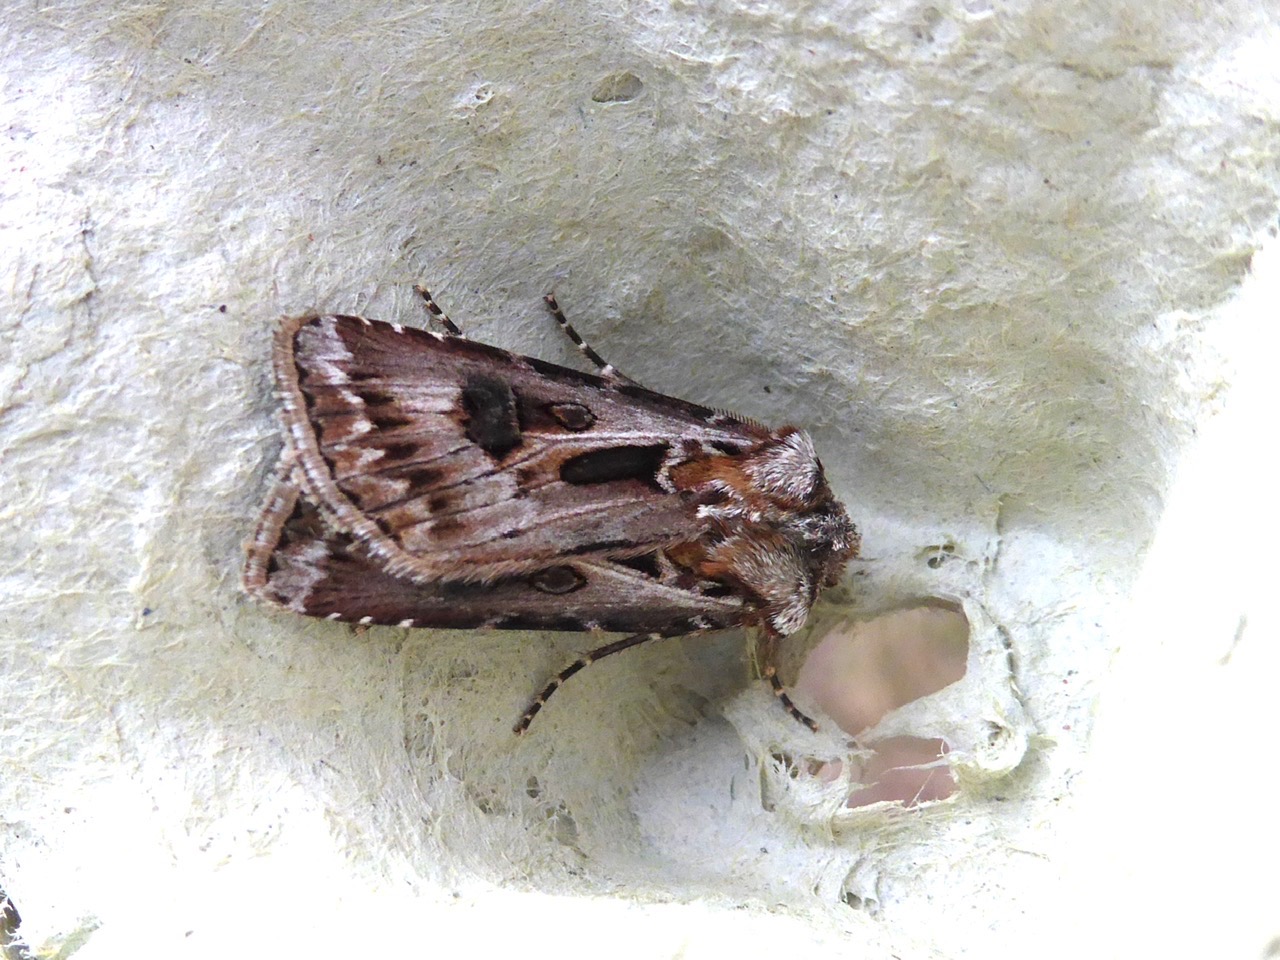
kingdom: Animalia
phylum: Arthropoda
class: Insecta
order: Lepidoptera
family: Noctuidae
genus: Agrotis
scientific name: Agrotis vestigialis
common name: Strand-landmand
